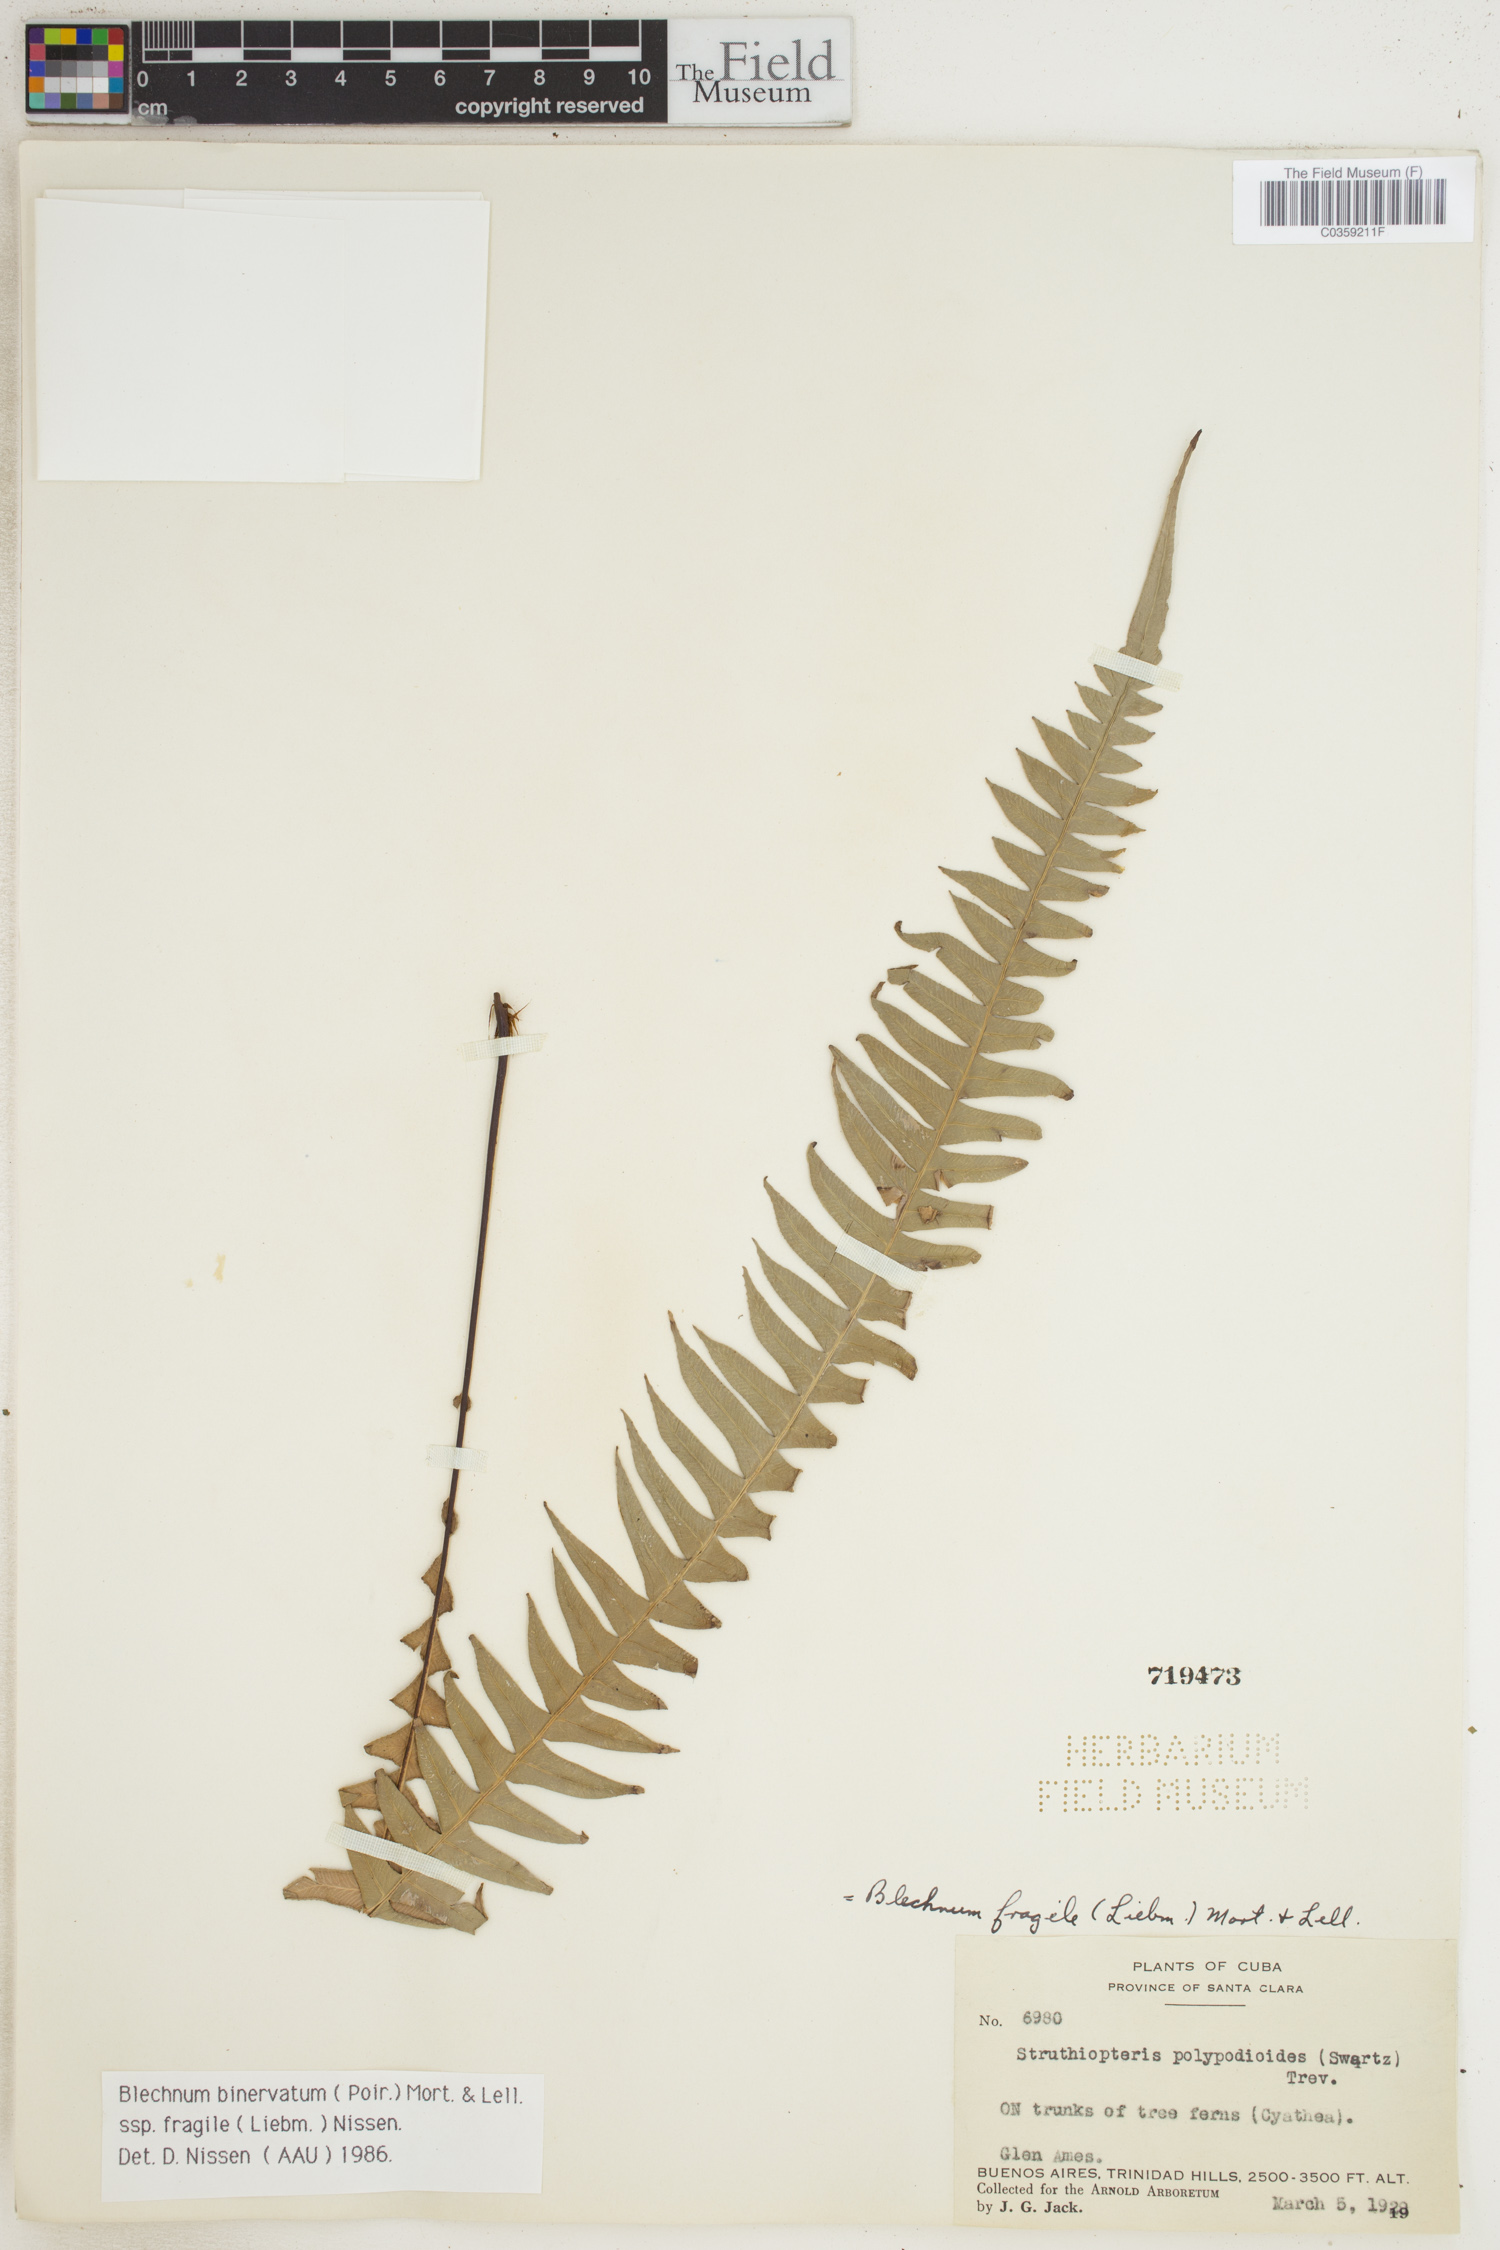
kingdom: Plantae
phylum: Tracheophyta
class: Polypodiopsida
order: Polypodiales
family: Blechnaceae
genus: Lomaridium
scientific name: Lomaridium binervatum
